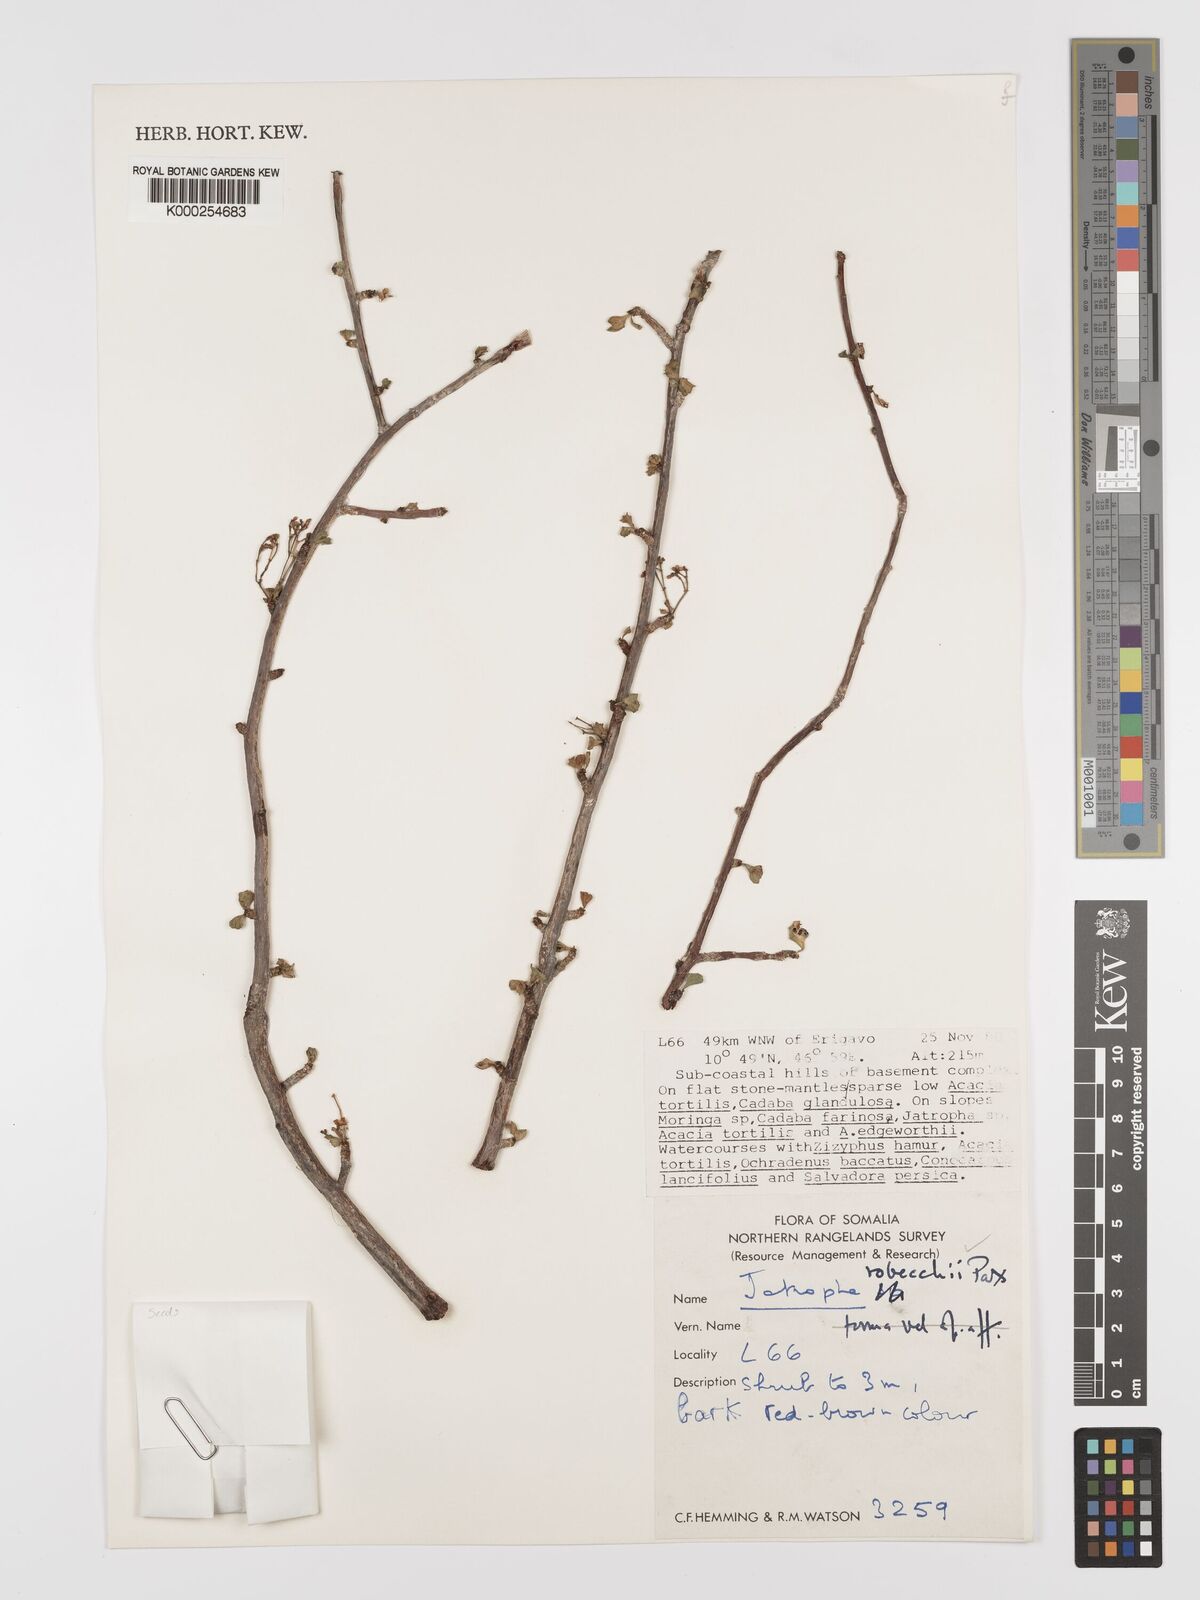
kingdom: Plantae
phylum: Tracheophyta
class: Magnoliopsida
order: Malpighiales
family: Euphorbiaceae
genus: Jatropha
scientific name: Jatropha robecchii
